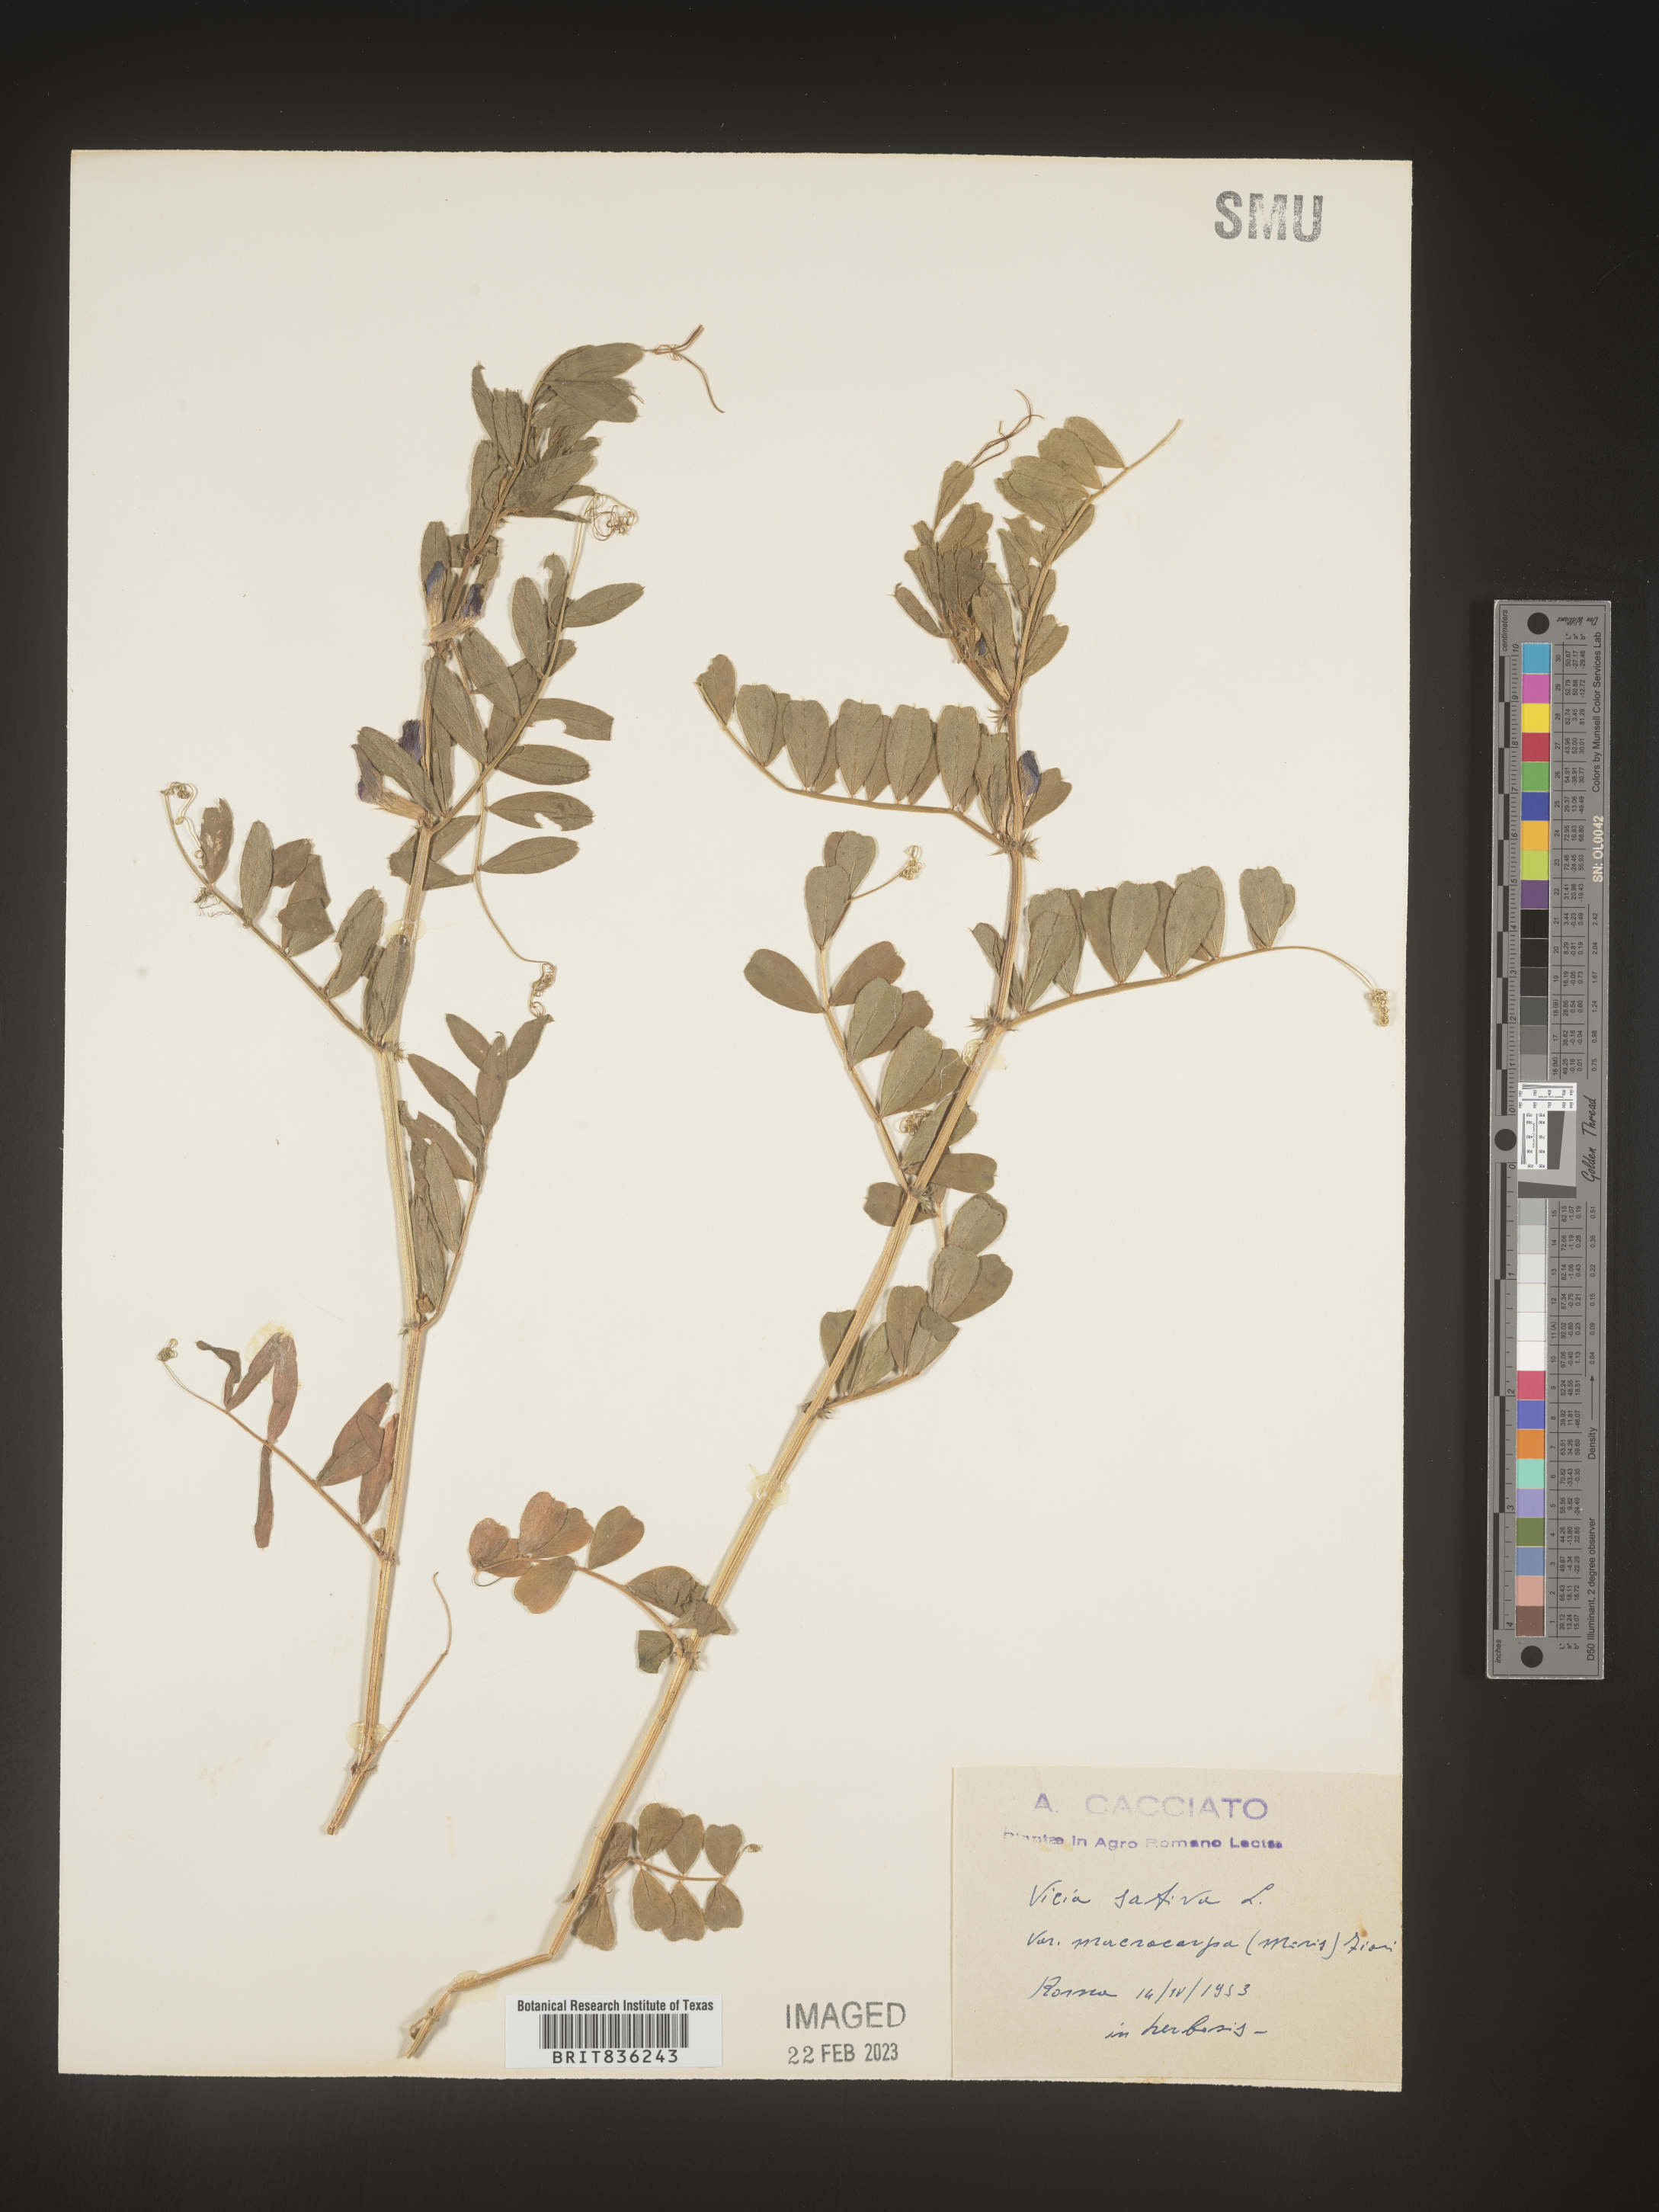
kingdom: Plantae
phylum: Tracheophyta
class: Magnoliopsida
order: Fabales
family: Fabaceae
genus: Vicia
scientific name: Vicia
